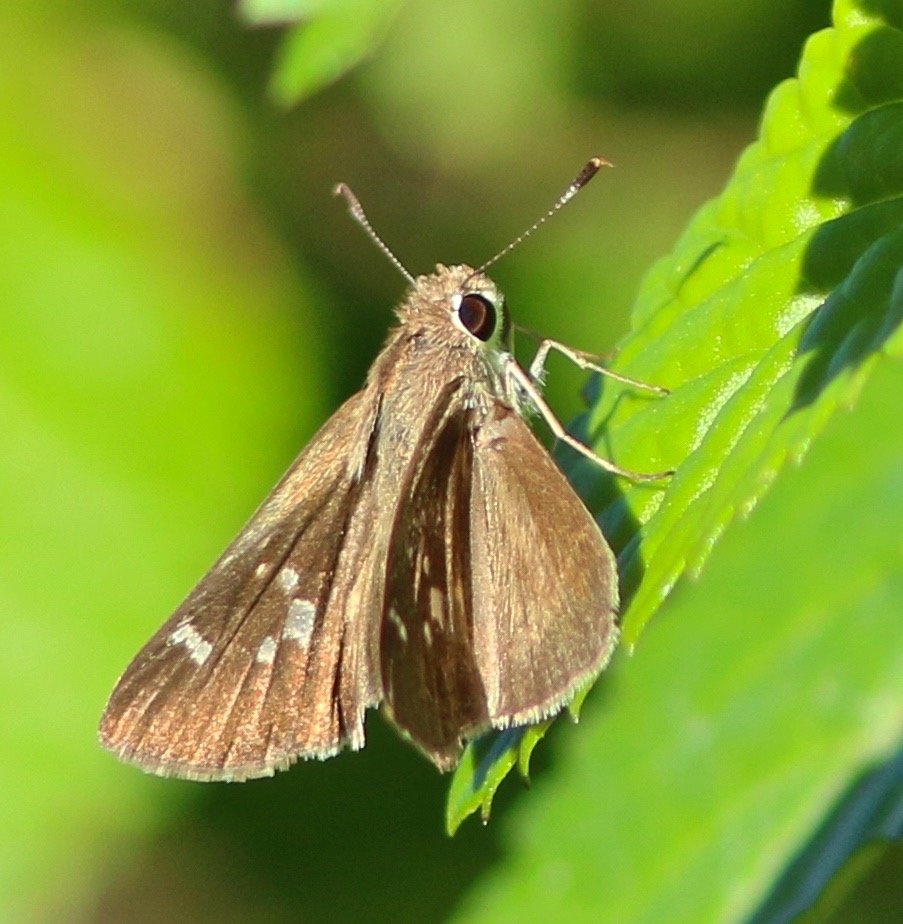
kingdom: Animalia
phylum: Arthropoda
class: Insecta
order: Lepidoptera
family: Hesperiidae
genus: Lerodea
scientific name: Lerodea eufala
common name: Eufala Skipper
